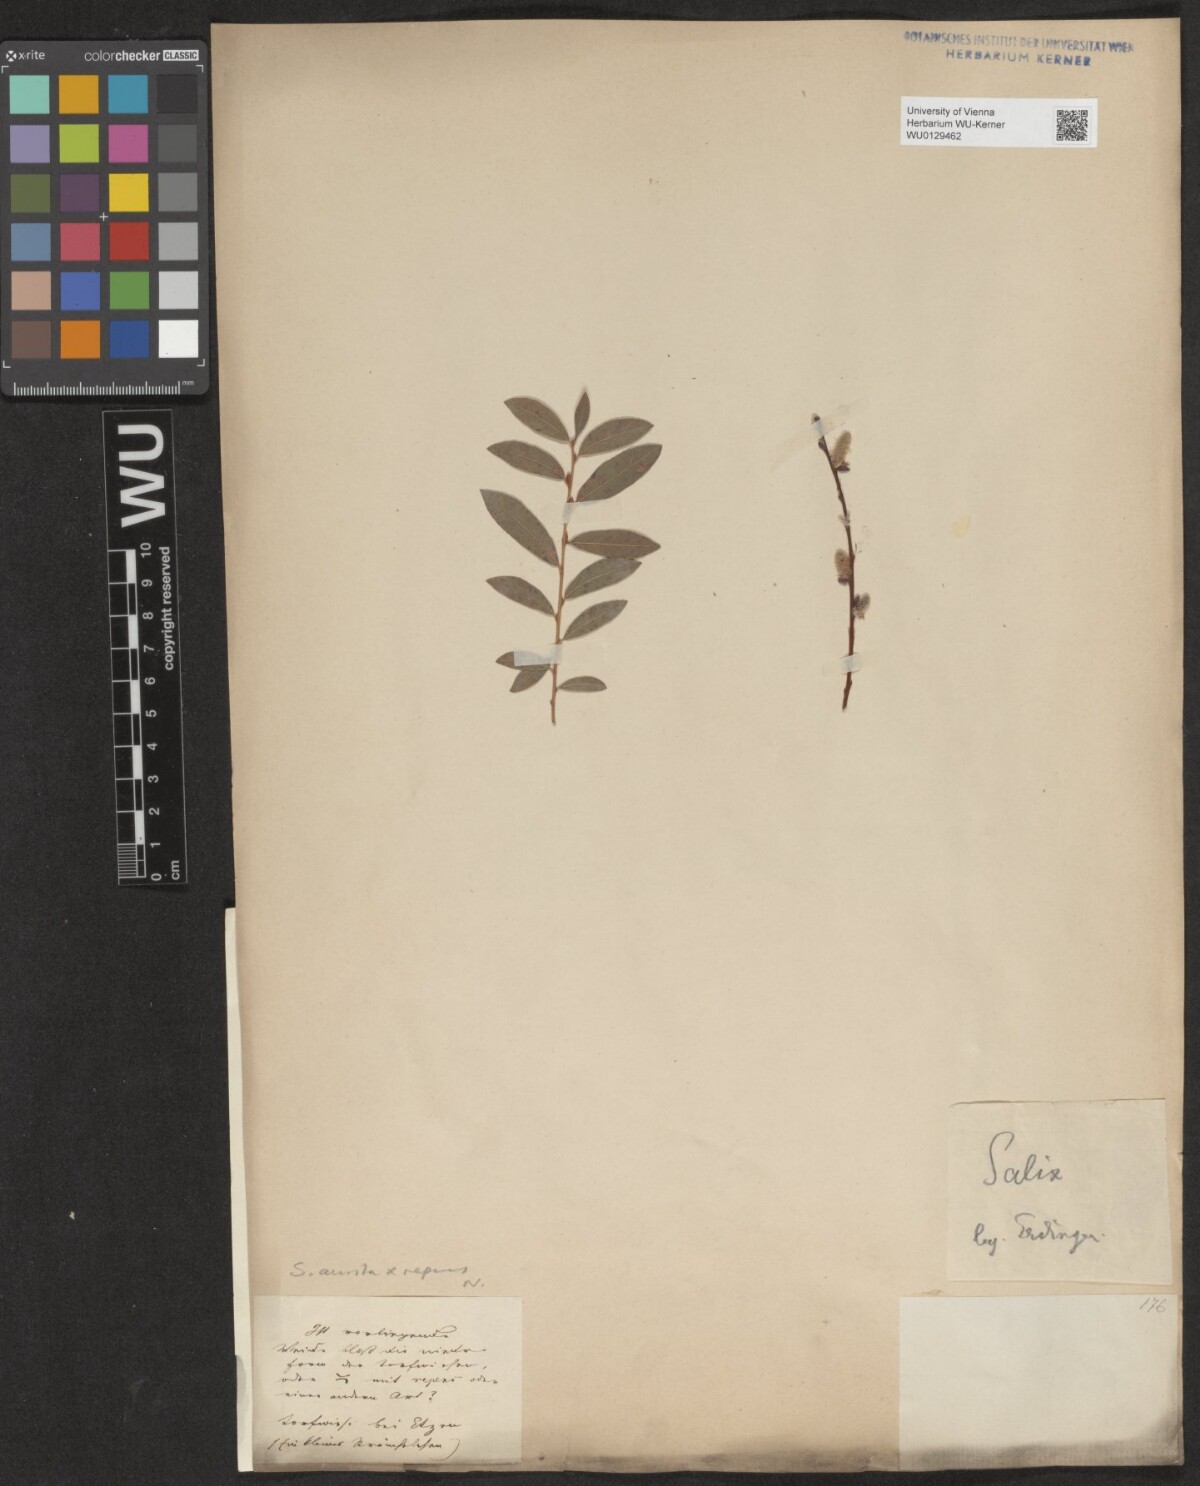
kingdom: Plantae
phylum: Tracheophyta
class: Magnoliopsida
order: Malpighiales
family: Salicaceae
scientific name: Salicaceae
